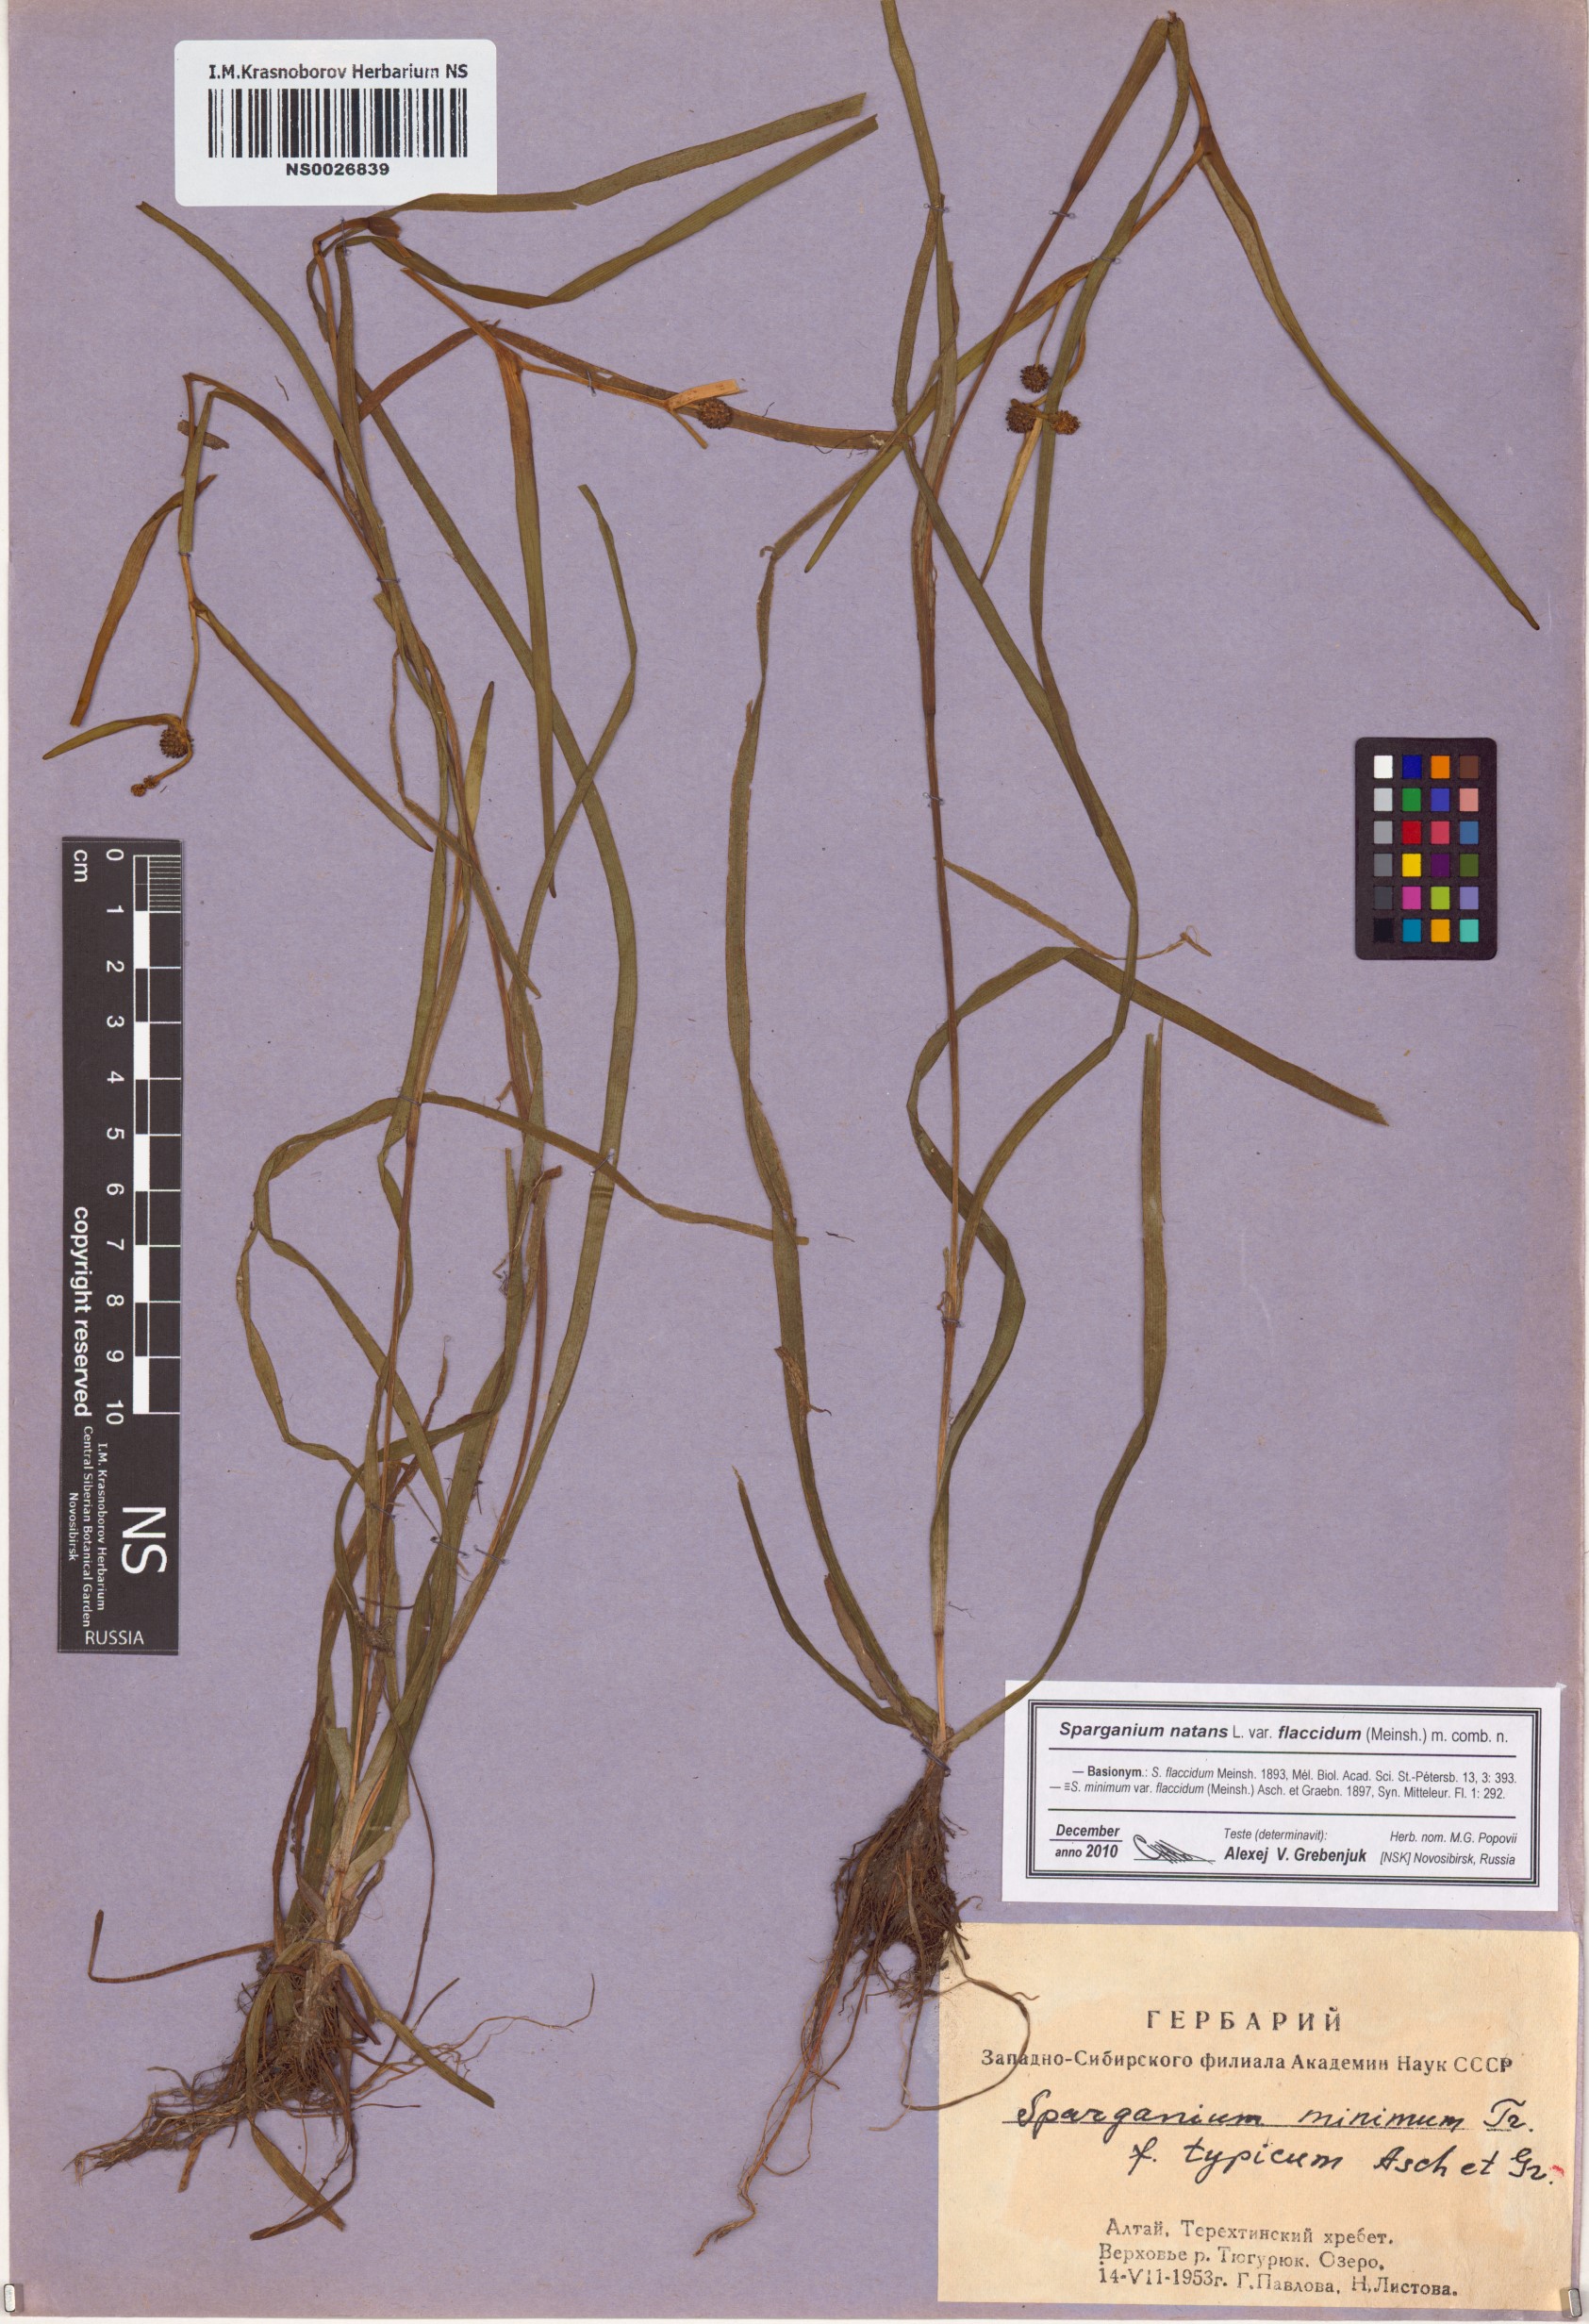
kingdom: Plantae
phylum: Tracheophyta
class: Liliopsida
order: Poales
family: Typhaceae
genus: Sparganium
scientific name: Sparganium natans
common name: Least bur-reed
